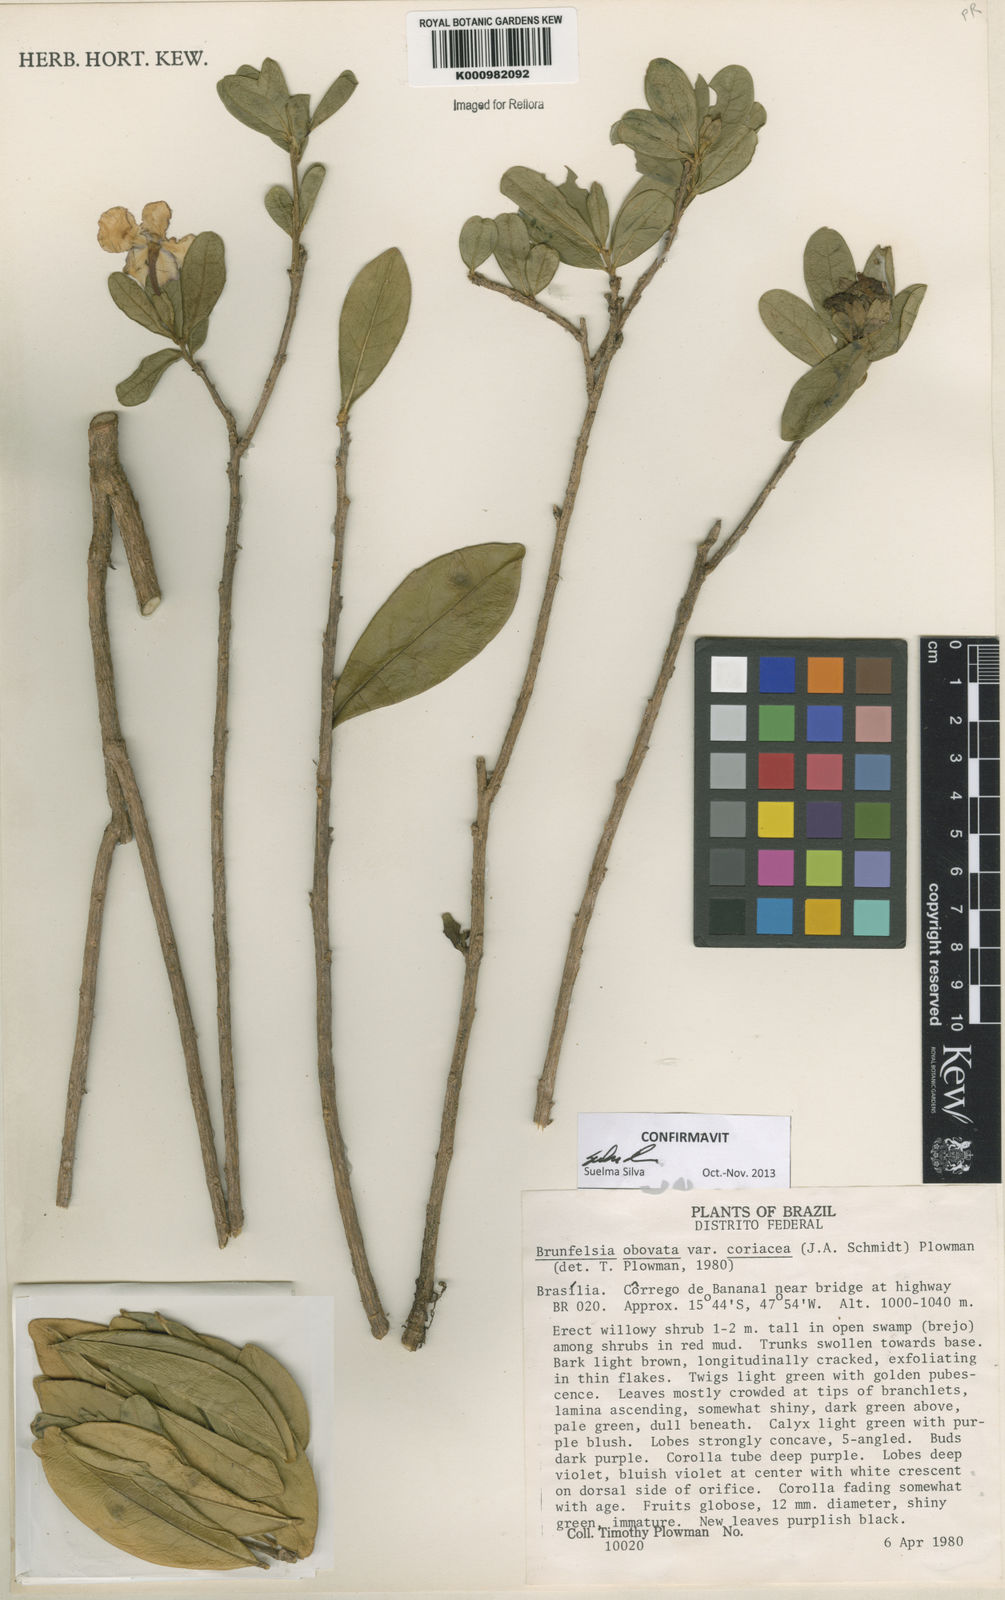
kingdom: Plantae
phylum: Tracheophyta
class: Magnoliopsida
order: Solanales
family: Solanaceae
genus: Brunfelsia
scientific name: Brunfelsia obovata
